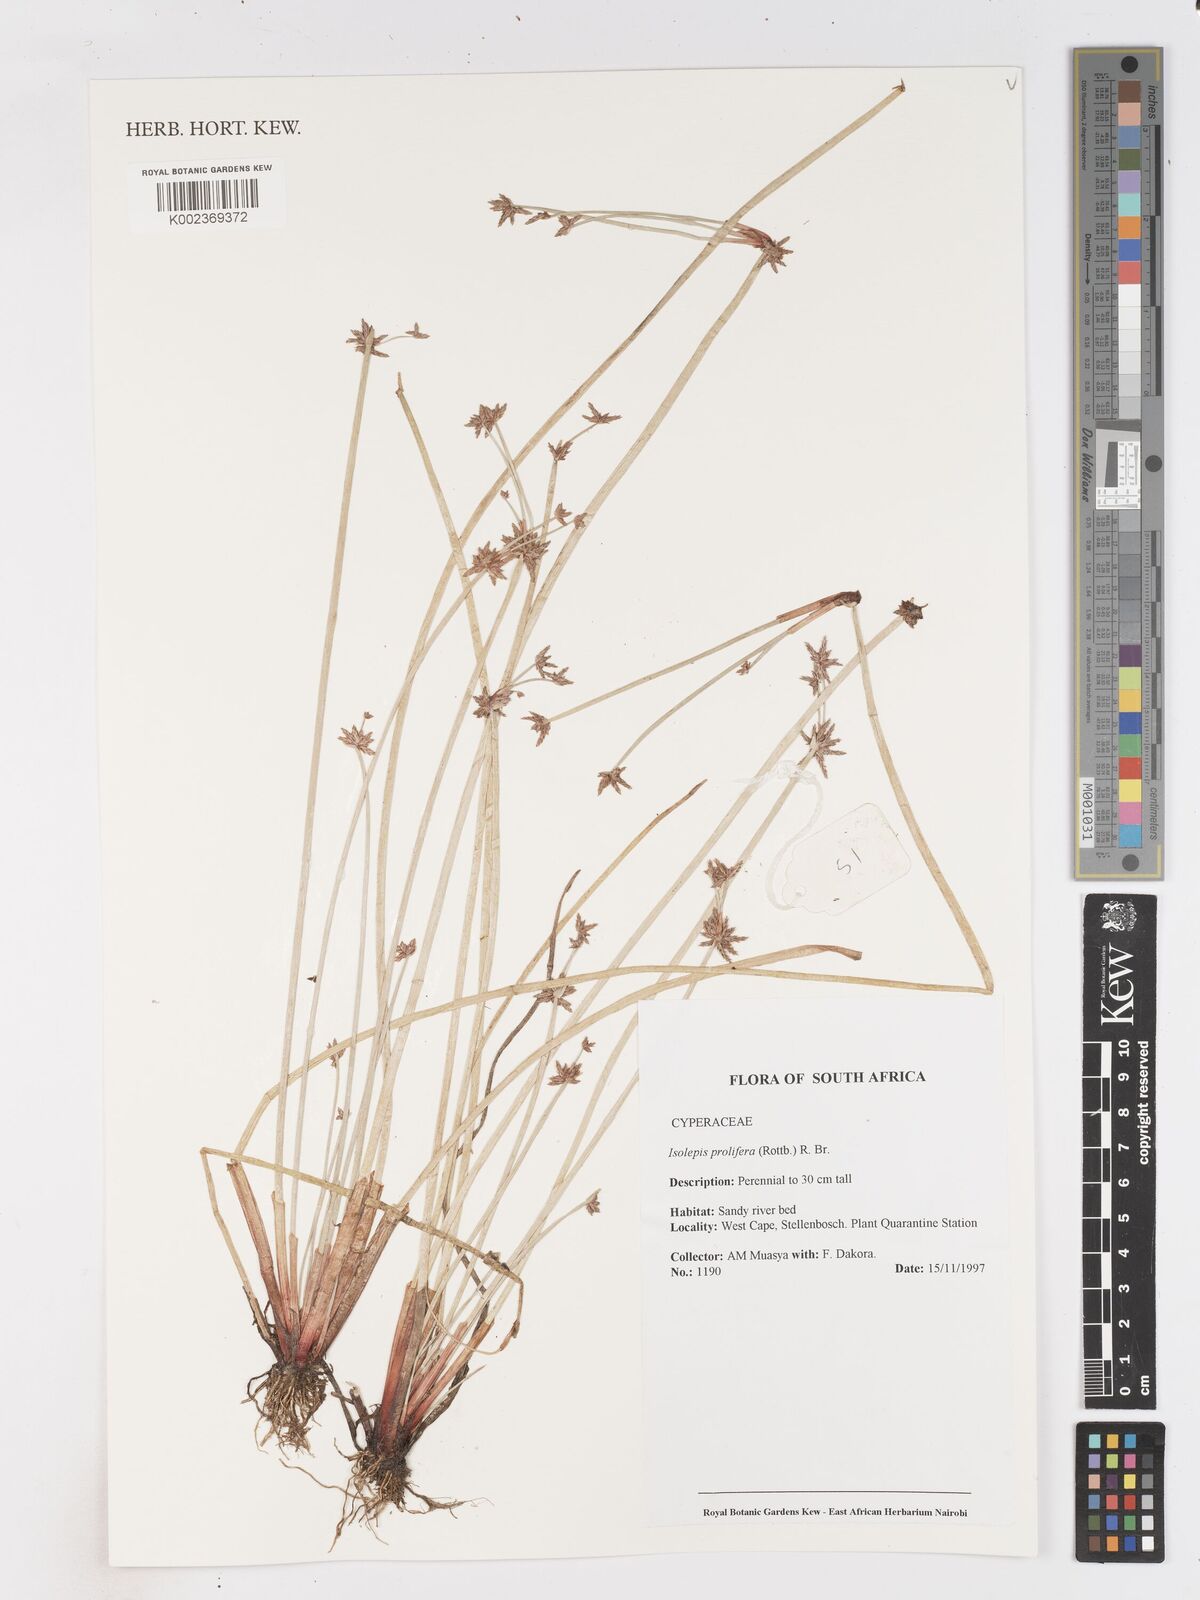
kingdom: Plantae
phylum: Tracheophyta
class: Liliopsida
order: Poales
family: Cyperaceae
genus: Isolepis
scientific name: Isolepis prolifera
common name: Proliferating bulrush
